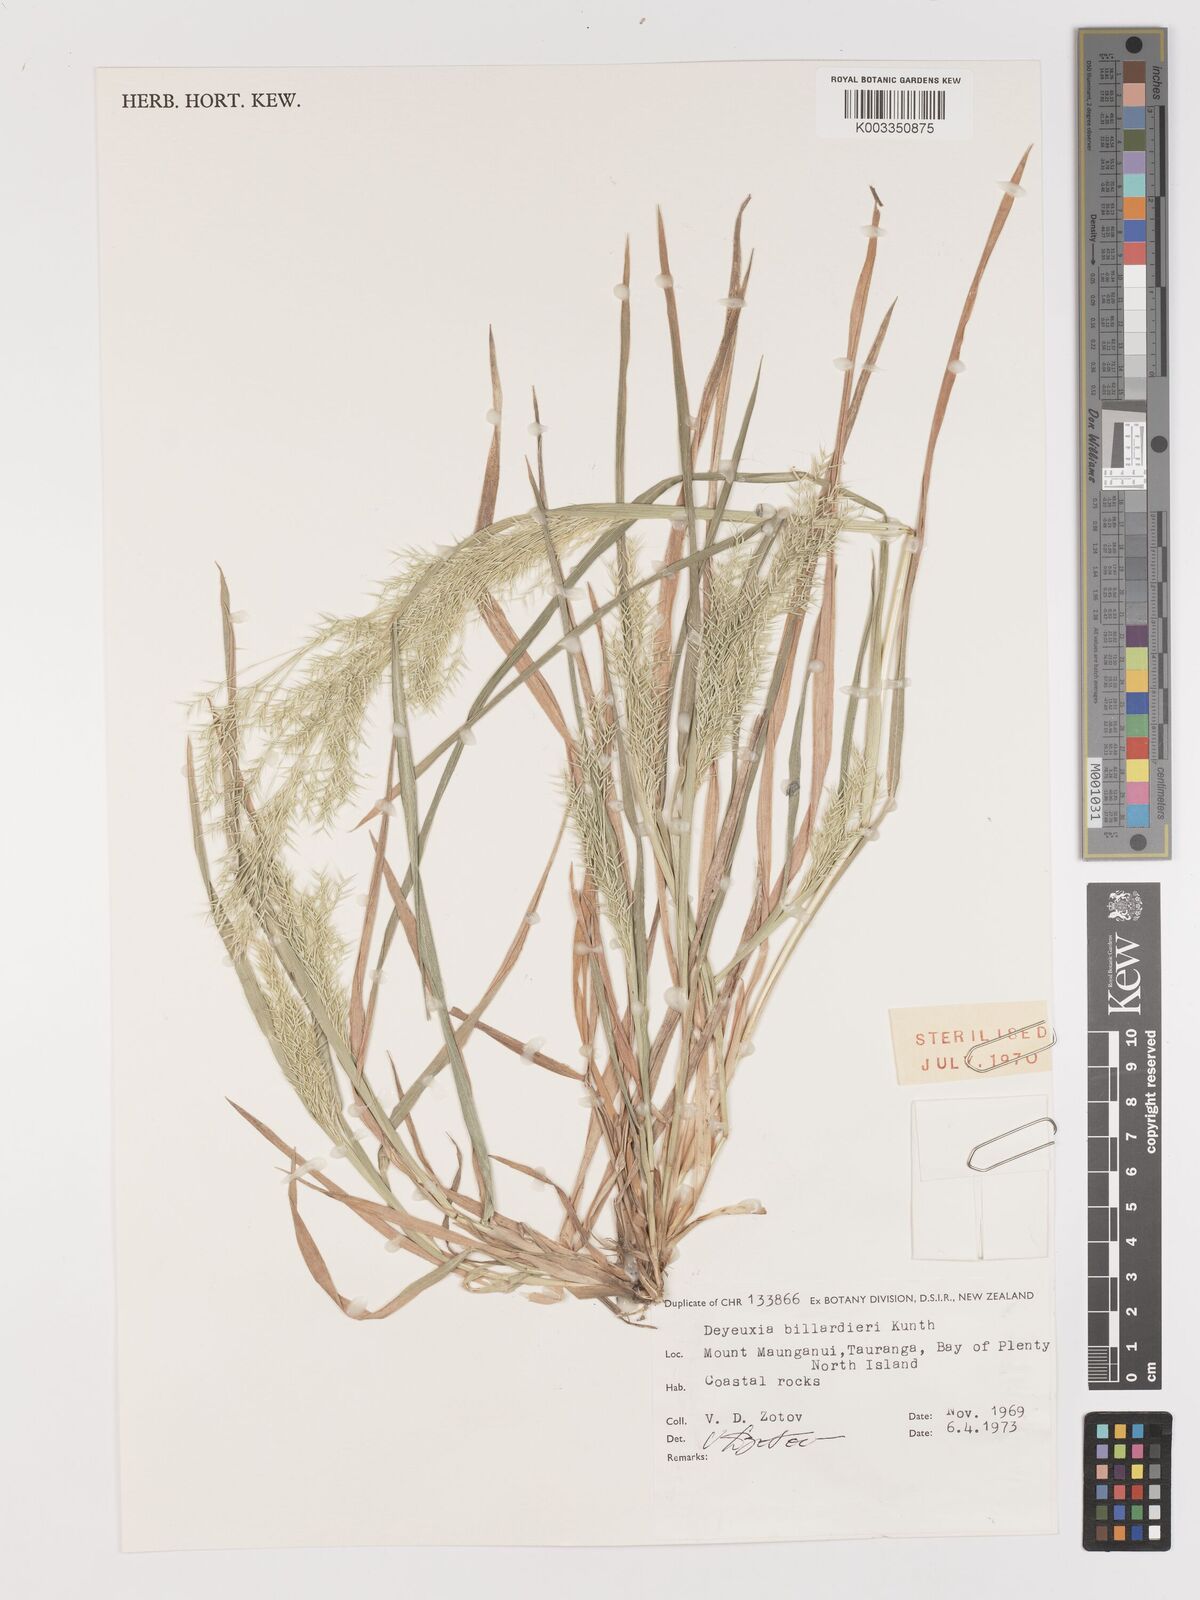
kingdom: Plantae
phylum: Tracheophyta
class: Liliopsida
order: Poales
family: Poaceae
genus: Lachnagrostis
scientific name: Lachnagrostis billardierei
